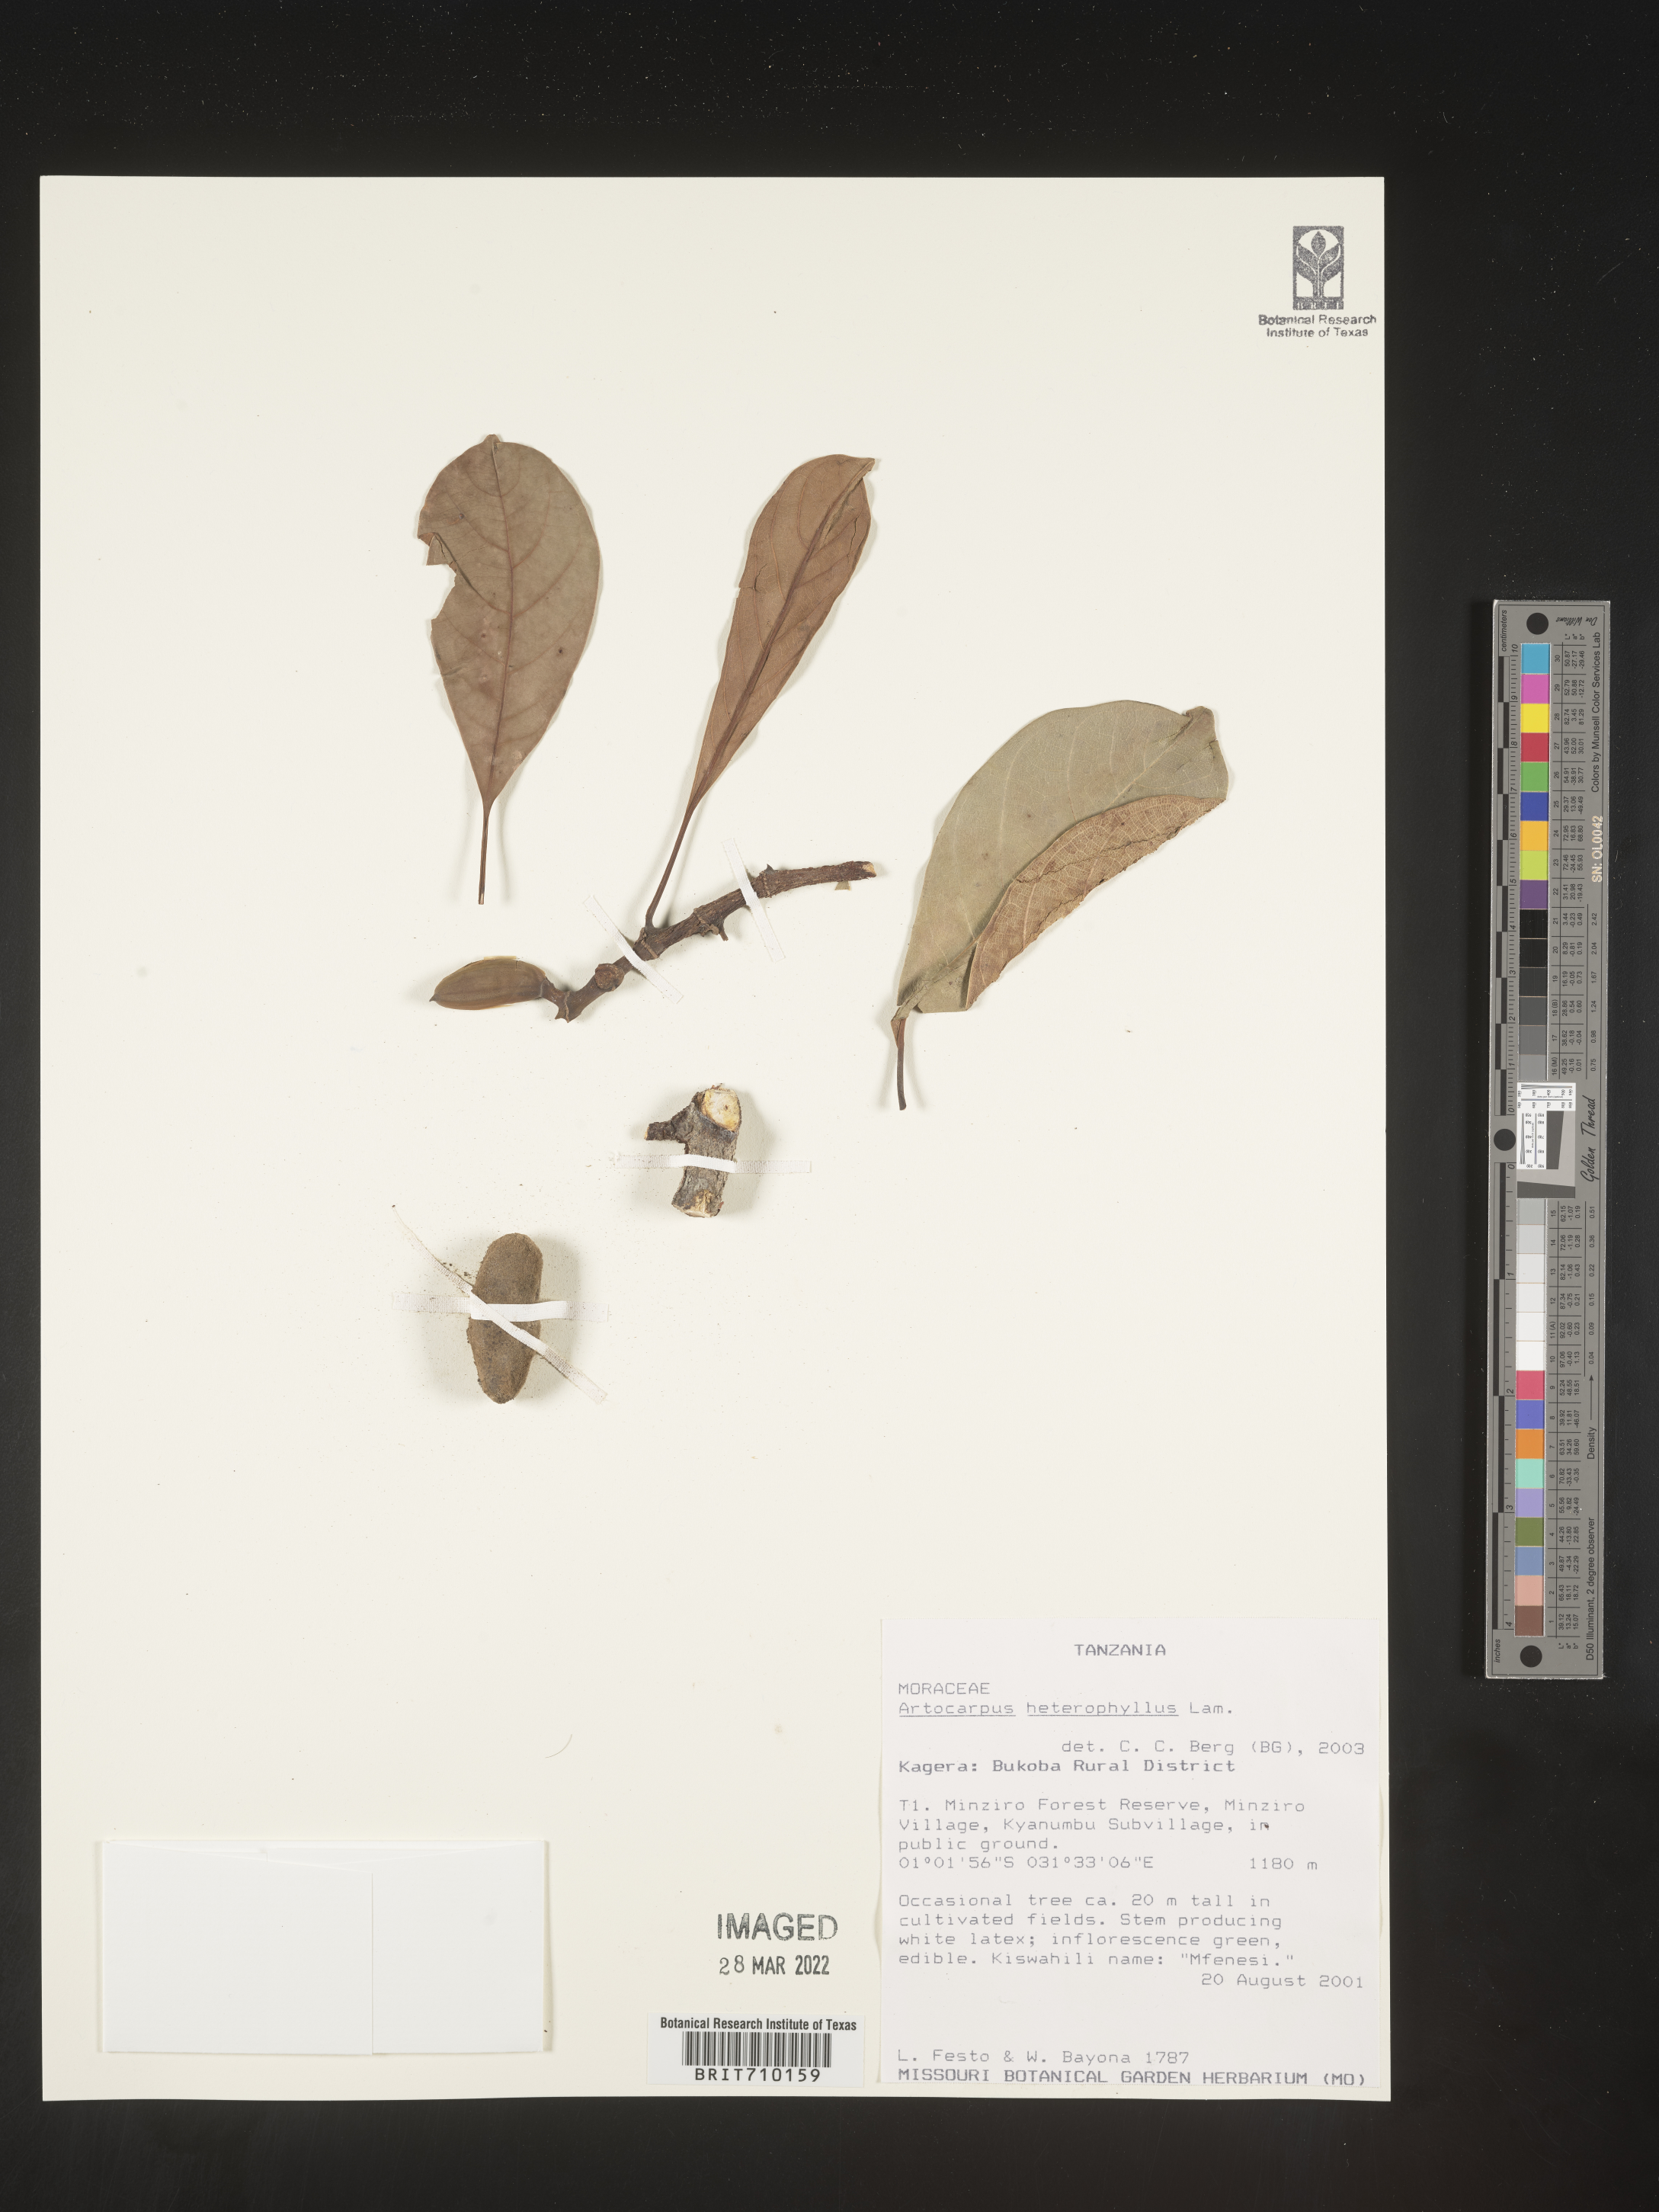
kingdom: Plantae
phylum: Tracheophyta
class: Magnoliopsida
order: Rosales
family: Moraceae
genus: Artocarpus
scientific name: Artocarpus
